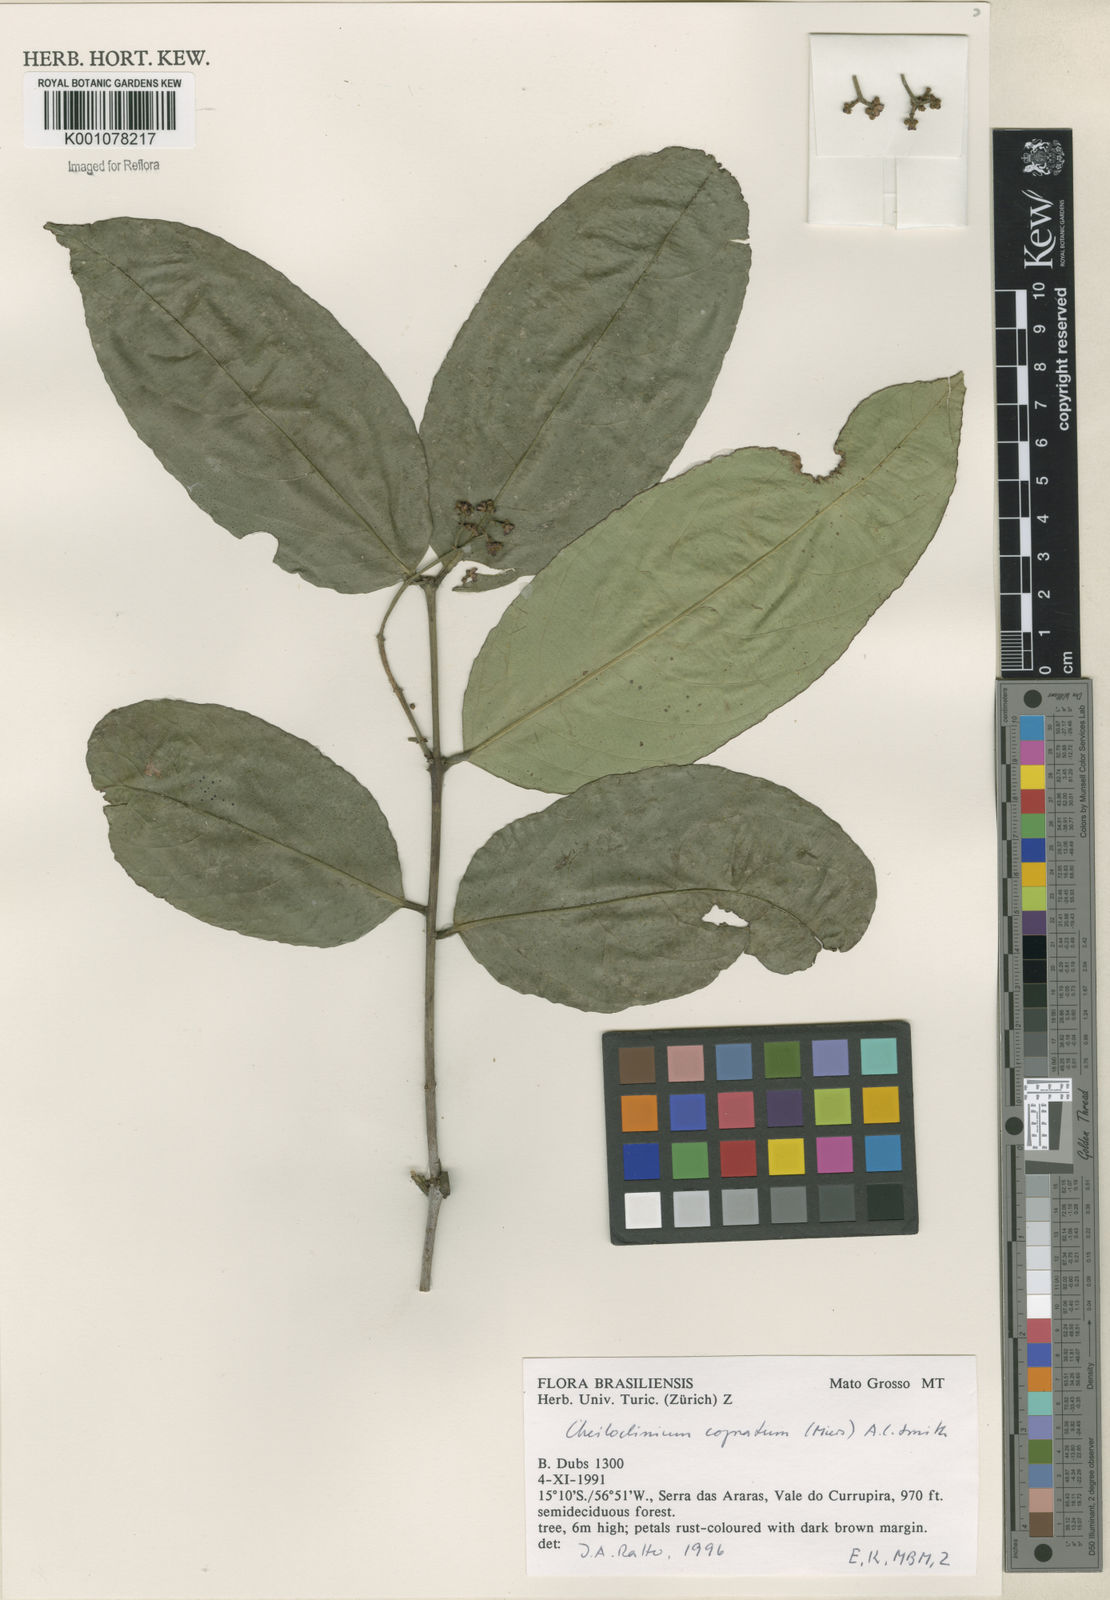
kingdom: Plantae
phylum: Tracheophyta
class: Magnoliopsida
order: Celastrales
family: Celastraceae
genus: Cheiloclinium
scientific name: Cheiloclinium cognatum
